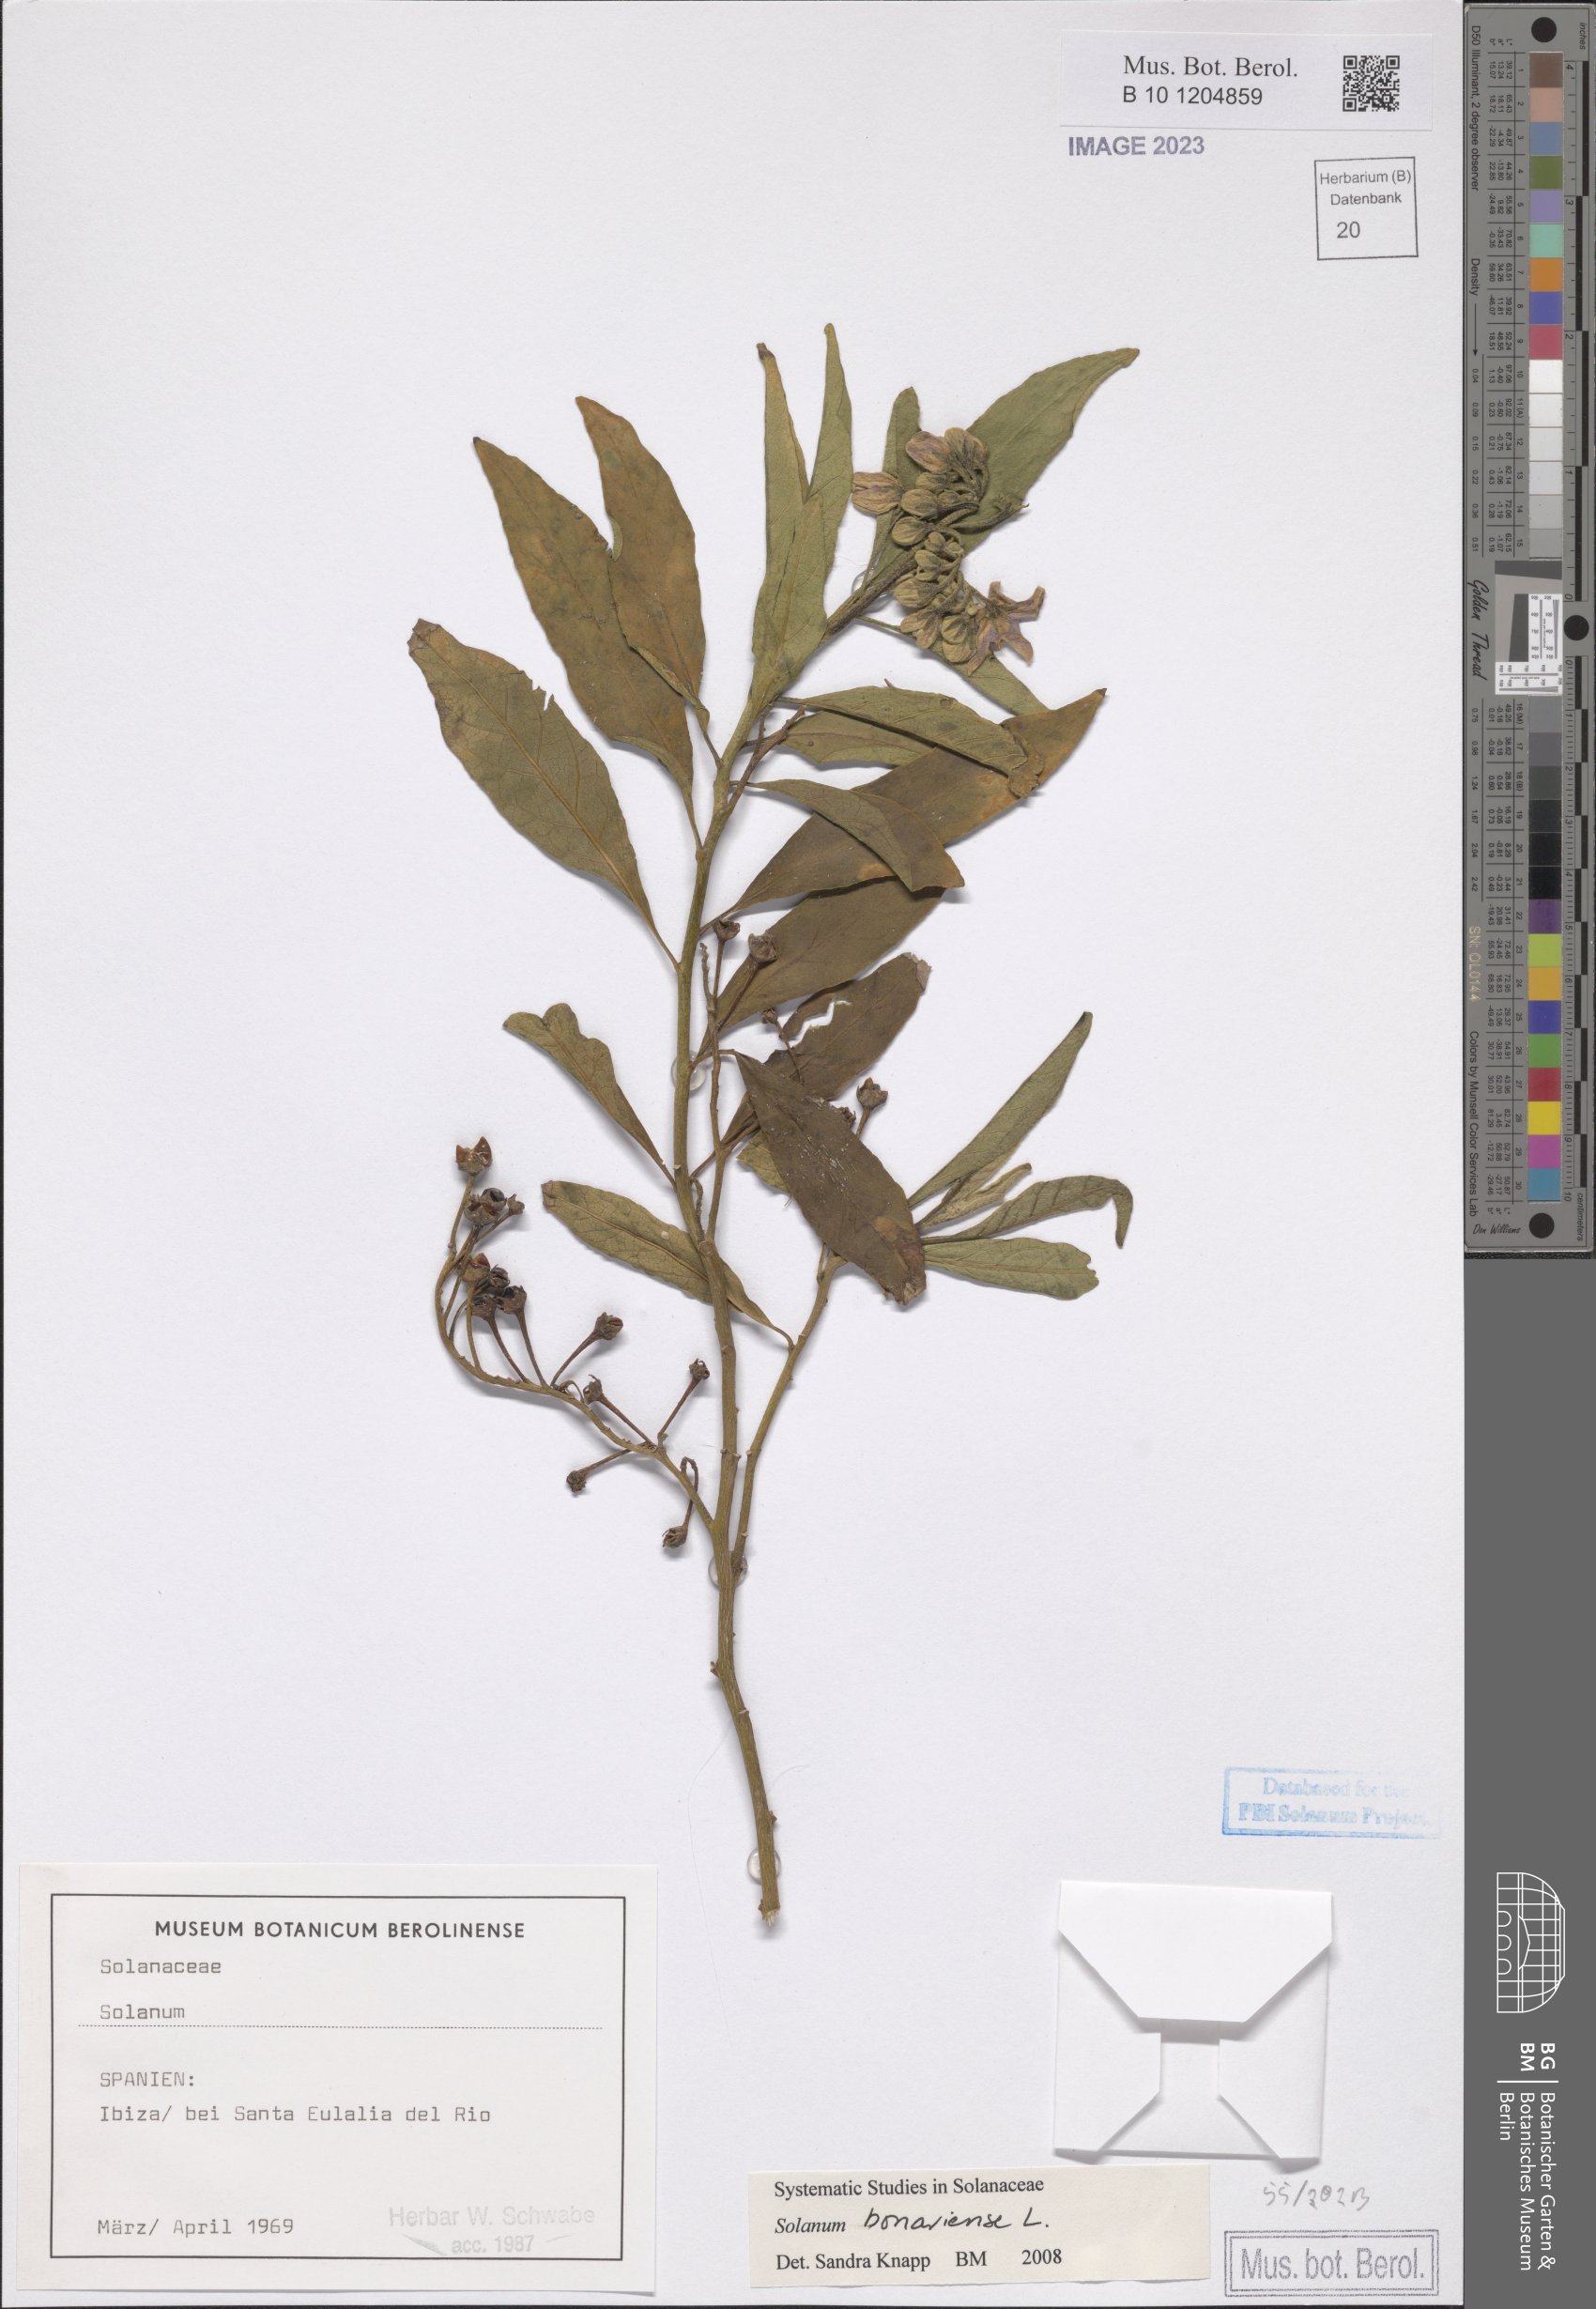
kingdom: Plantae
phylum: Tracheophyta
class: Magnoliopsida
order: Solanales
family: Solanaceae
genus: Solanum
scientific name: Solanum bonariense
